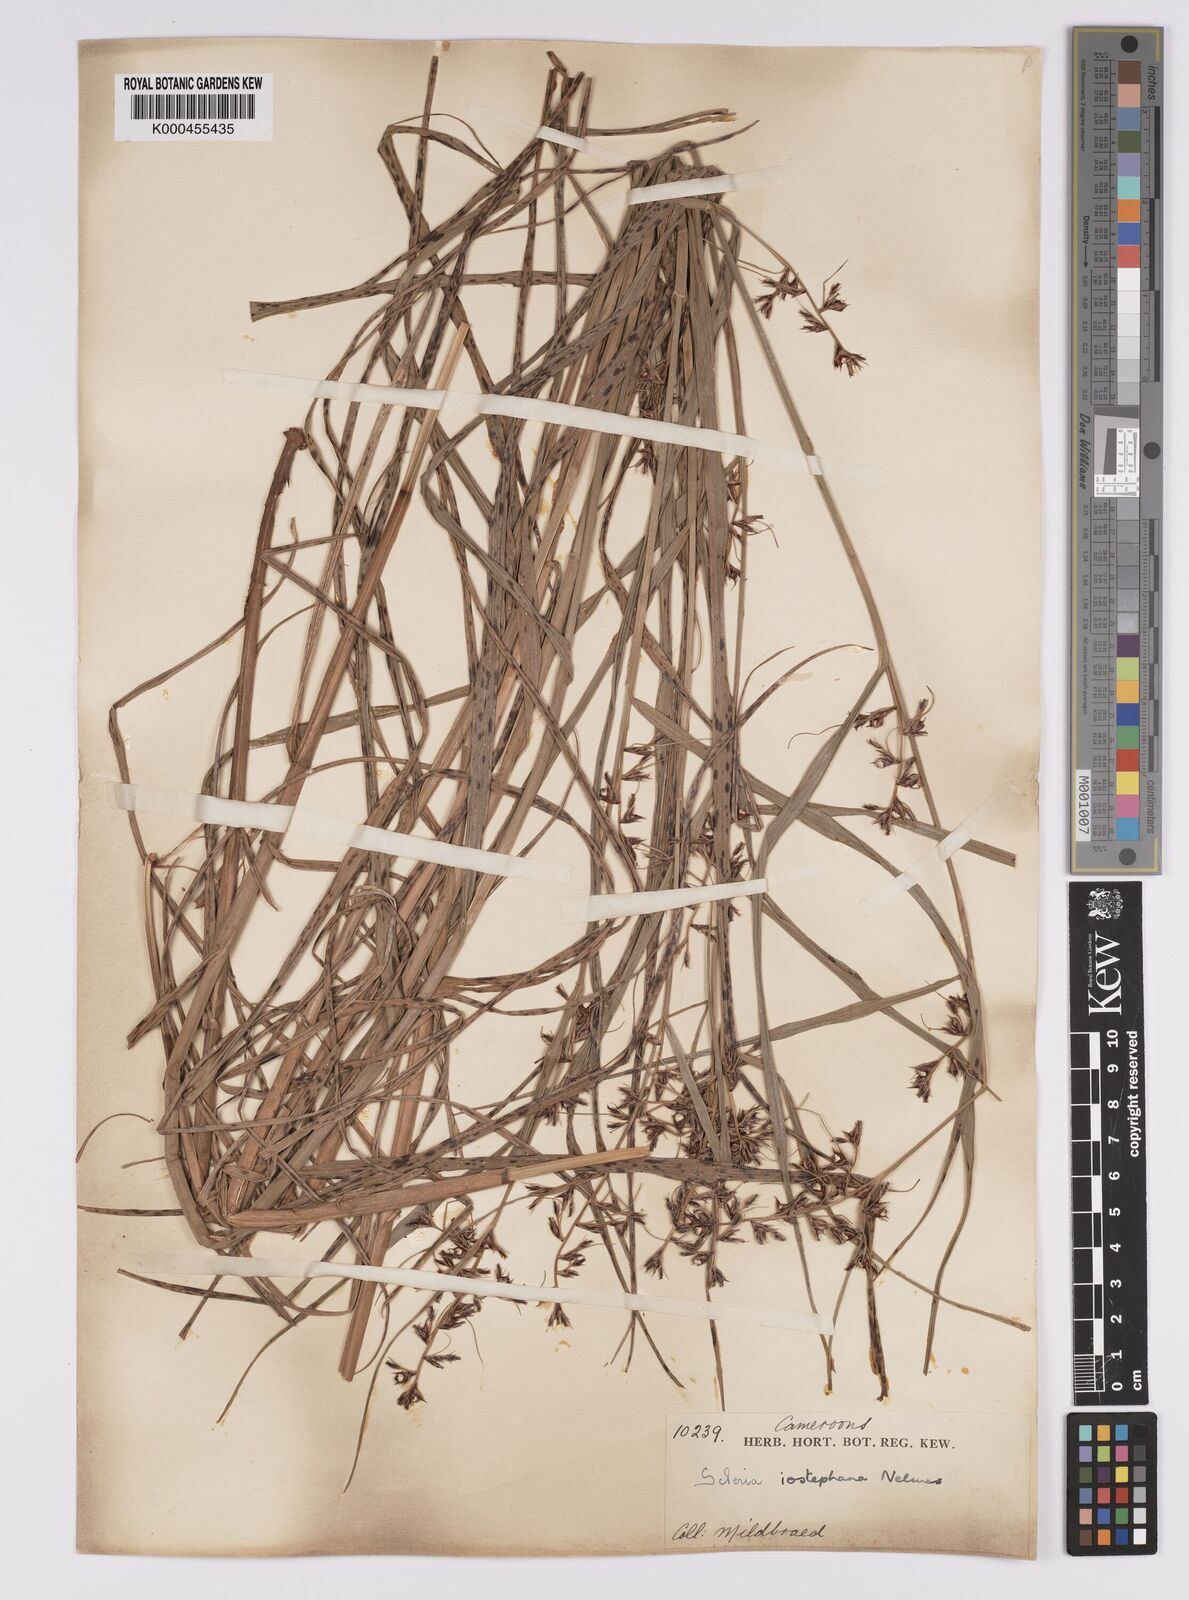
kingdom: Plantae
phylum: Tracheophyta
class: Liliopsida
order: Poales
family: Cyperaceae
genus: Scleria
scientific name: Scleria iostephana
